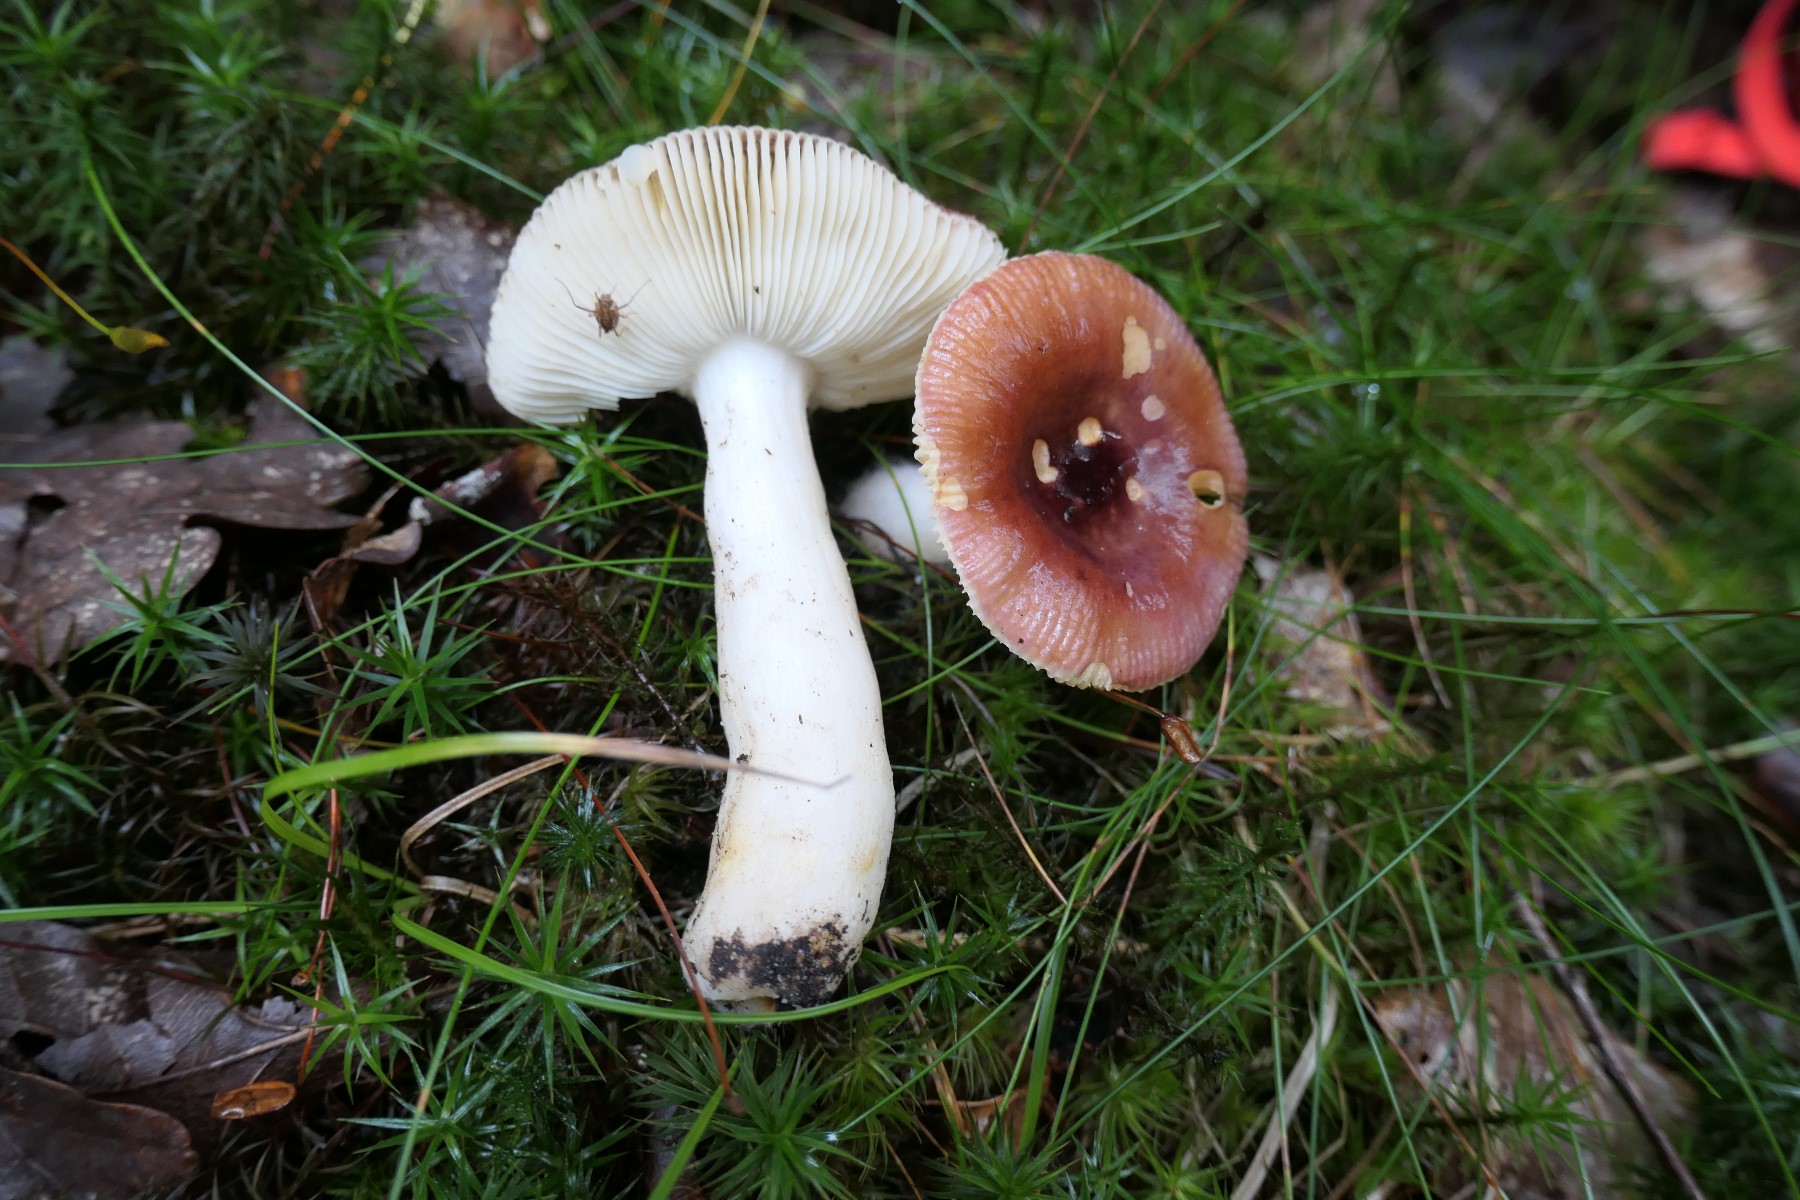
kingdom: Fungi
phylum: Basidiomycota
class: Agaricomycetes
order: Russulales
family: Russulaceae
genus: Russula
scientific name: Russula puellaris
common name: gulstokket skørhat
